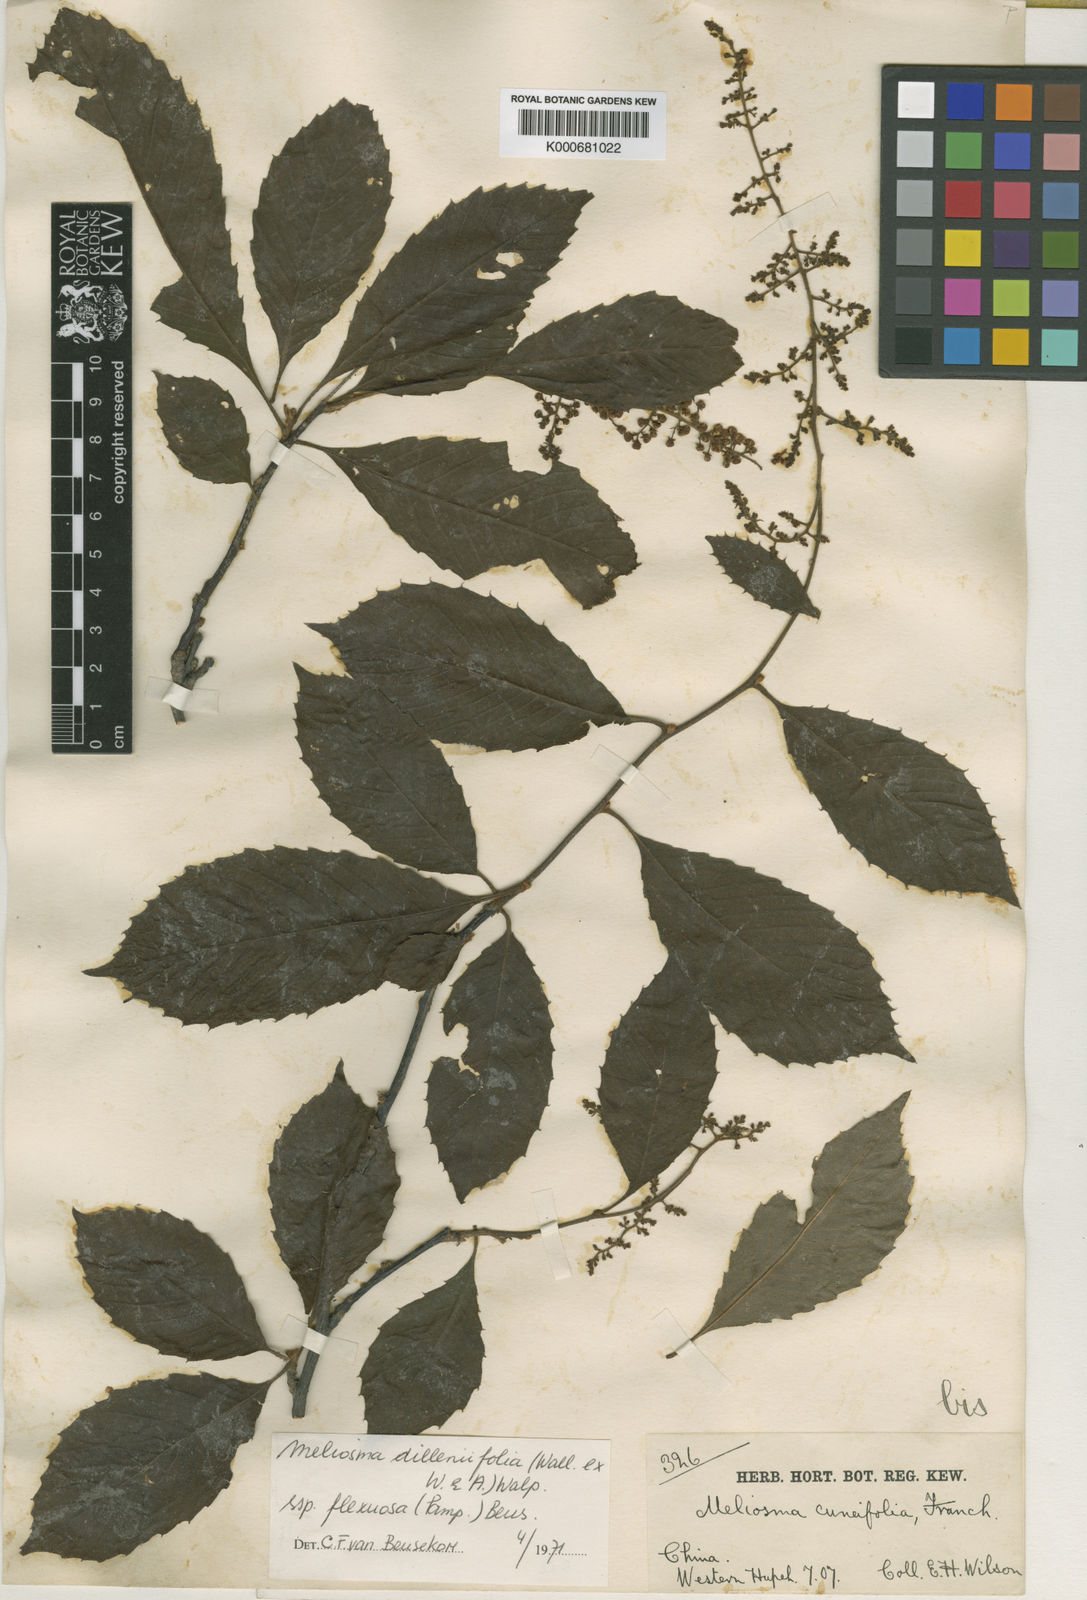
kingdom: Plantae
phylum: Tracheophyta
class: Magnoliopsida
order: Proteales
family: Sabiaceae
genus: Meliosma
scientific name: Meliosma flexuosa
